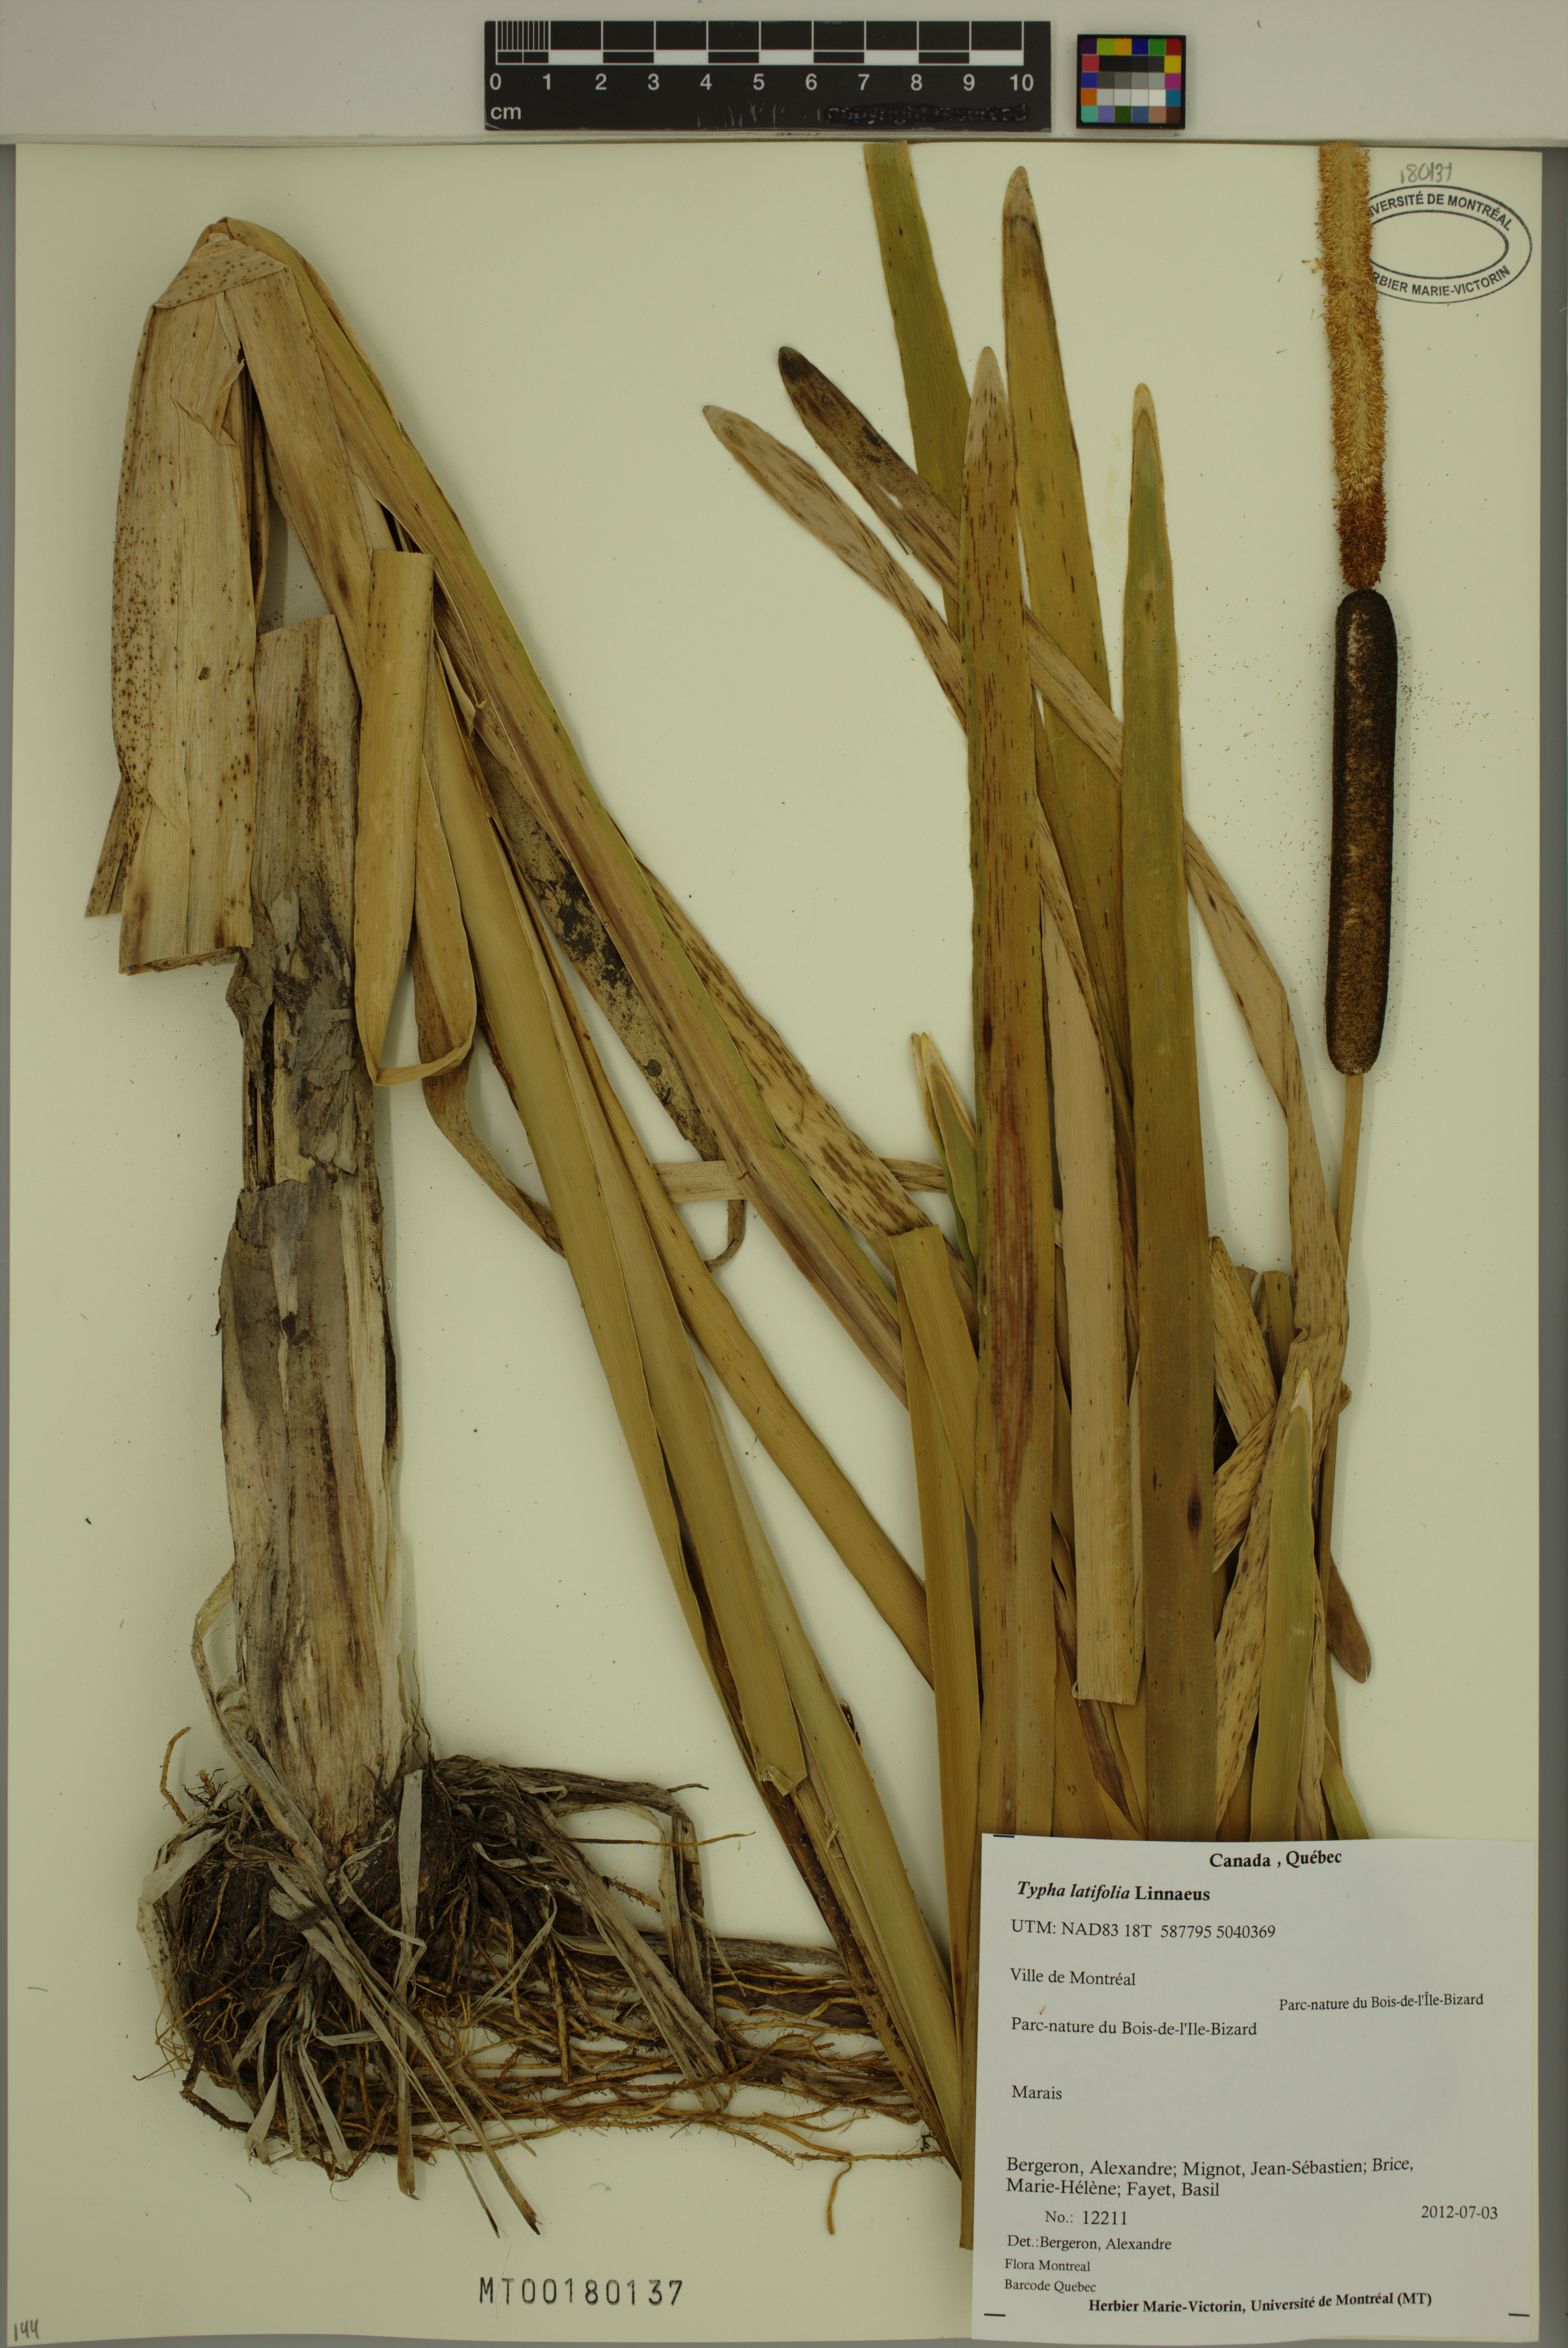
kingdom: Plantae
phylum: Tracheophyta
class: Liliopsida
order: Poales
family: Typhaceae
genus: Typha
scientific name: Typha latifolia
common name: Broadleaf cattail
